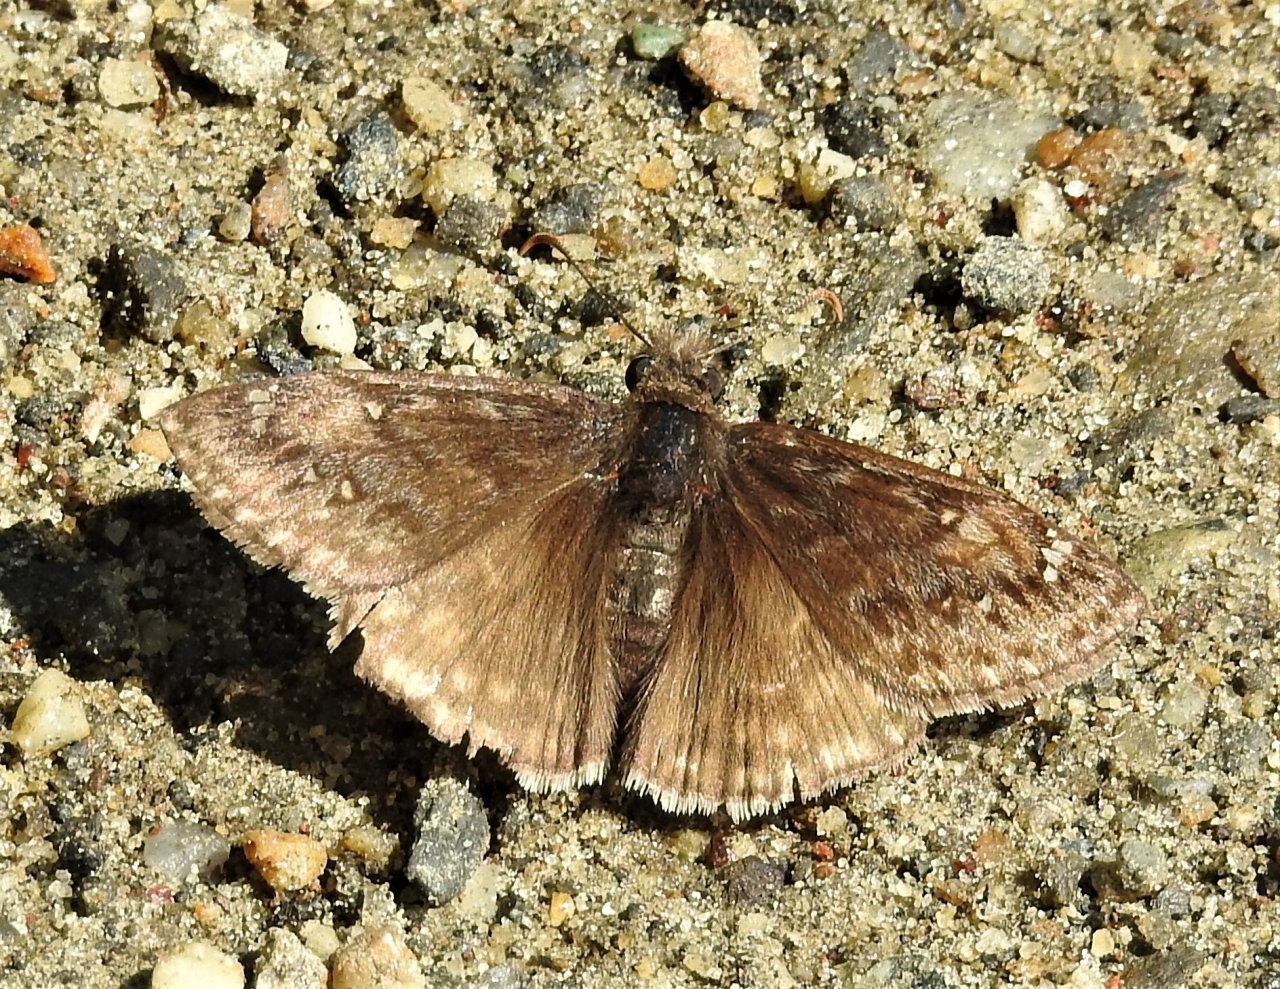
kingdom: Animalia
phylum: Arthropoda
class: Insecta
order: Lepidoptera
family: Hesperiidae
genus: Erynnis
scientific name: Erynnis
